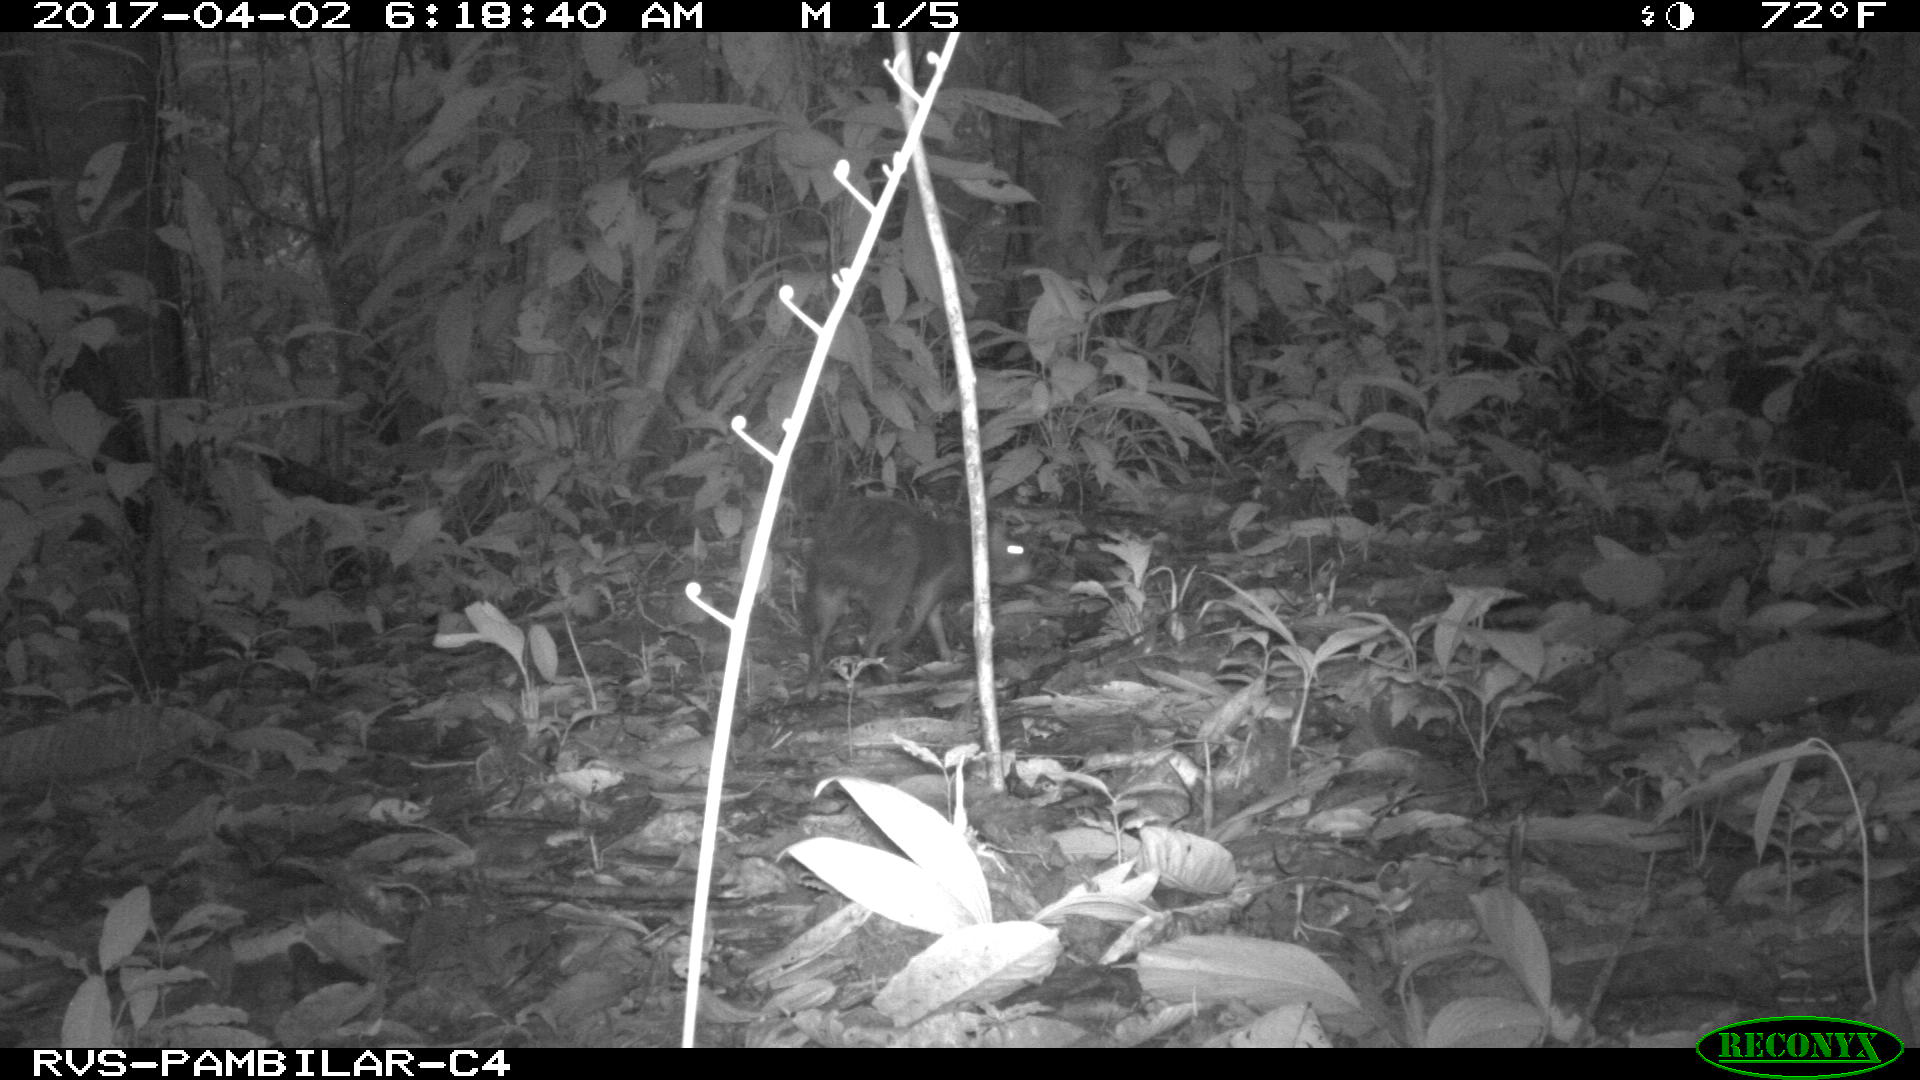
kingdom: Animalia
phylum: Chordata
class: Mammalia
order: Rodentia
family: Dasyproctidae
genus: Dasyprocta
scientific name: Dasyprocta punctata
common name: Central american agouti
